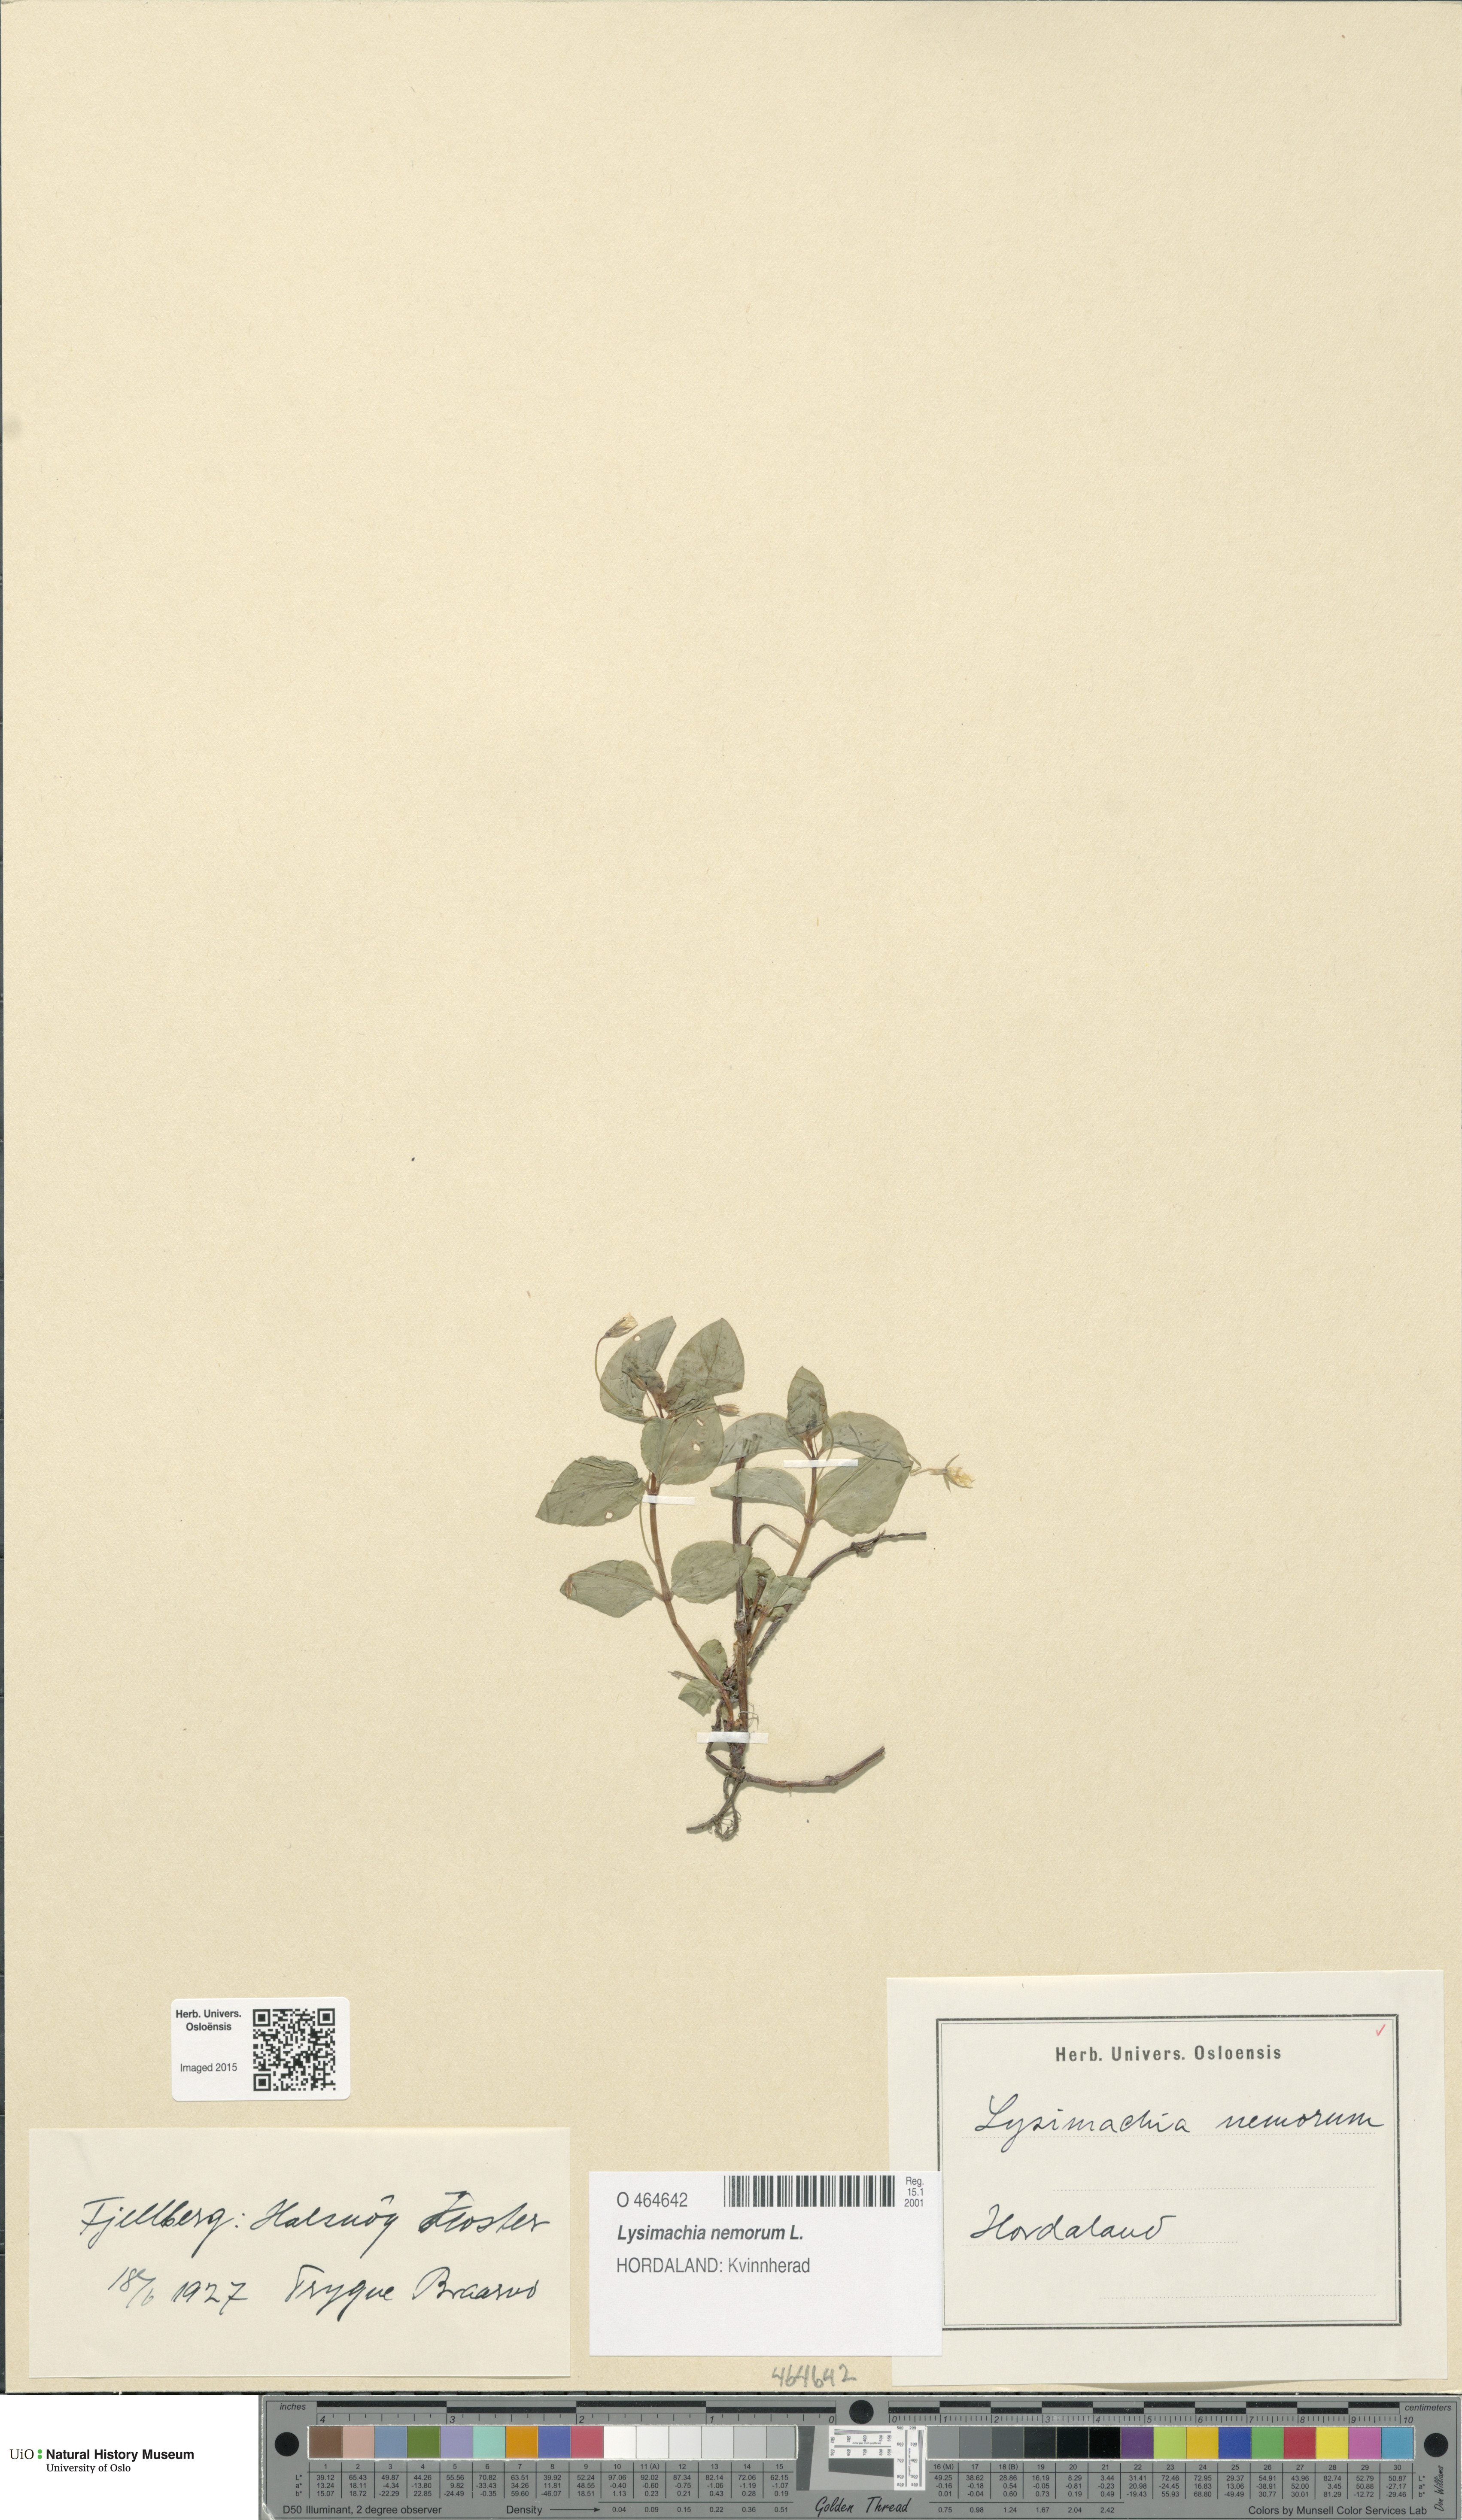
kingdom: Plantae
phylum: Tracheophyta
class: Magnoliopsida
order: Ericales
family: Primulaceae
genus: Lysimachia
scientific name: Lysimachia nemorum
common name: Yellow pimpernel
